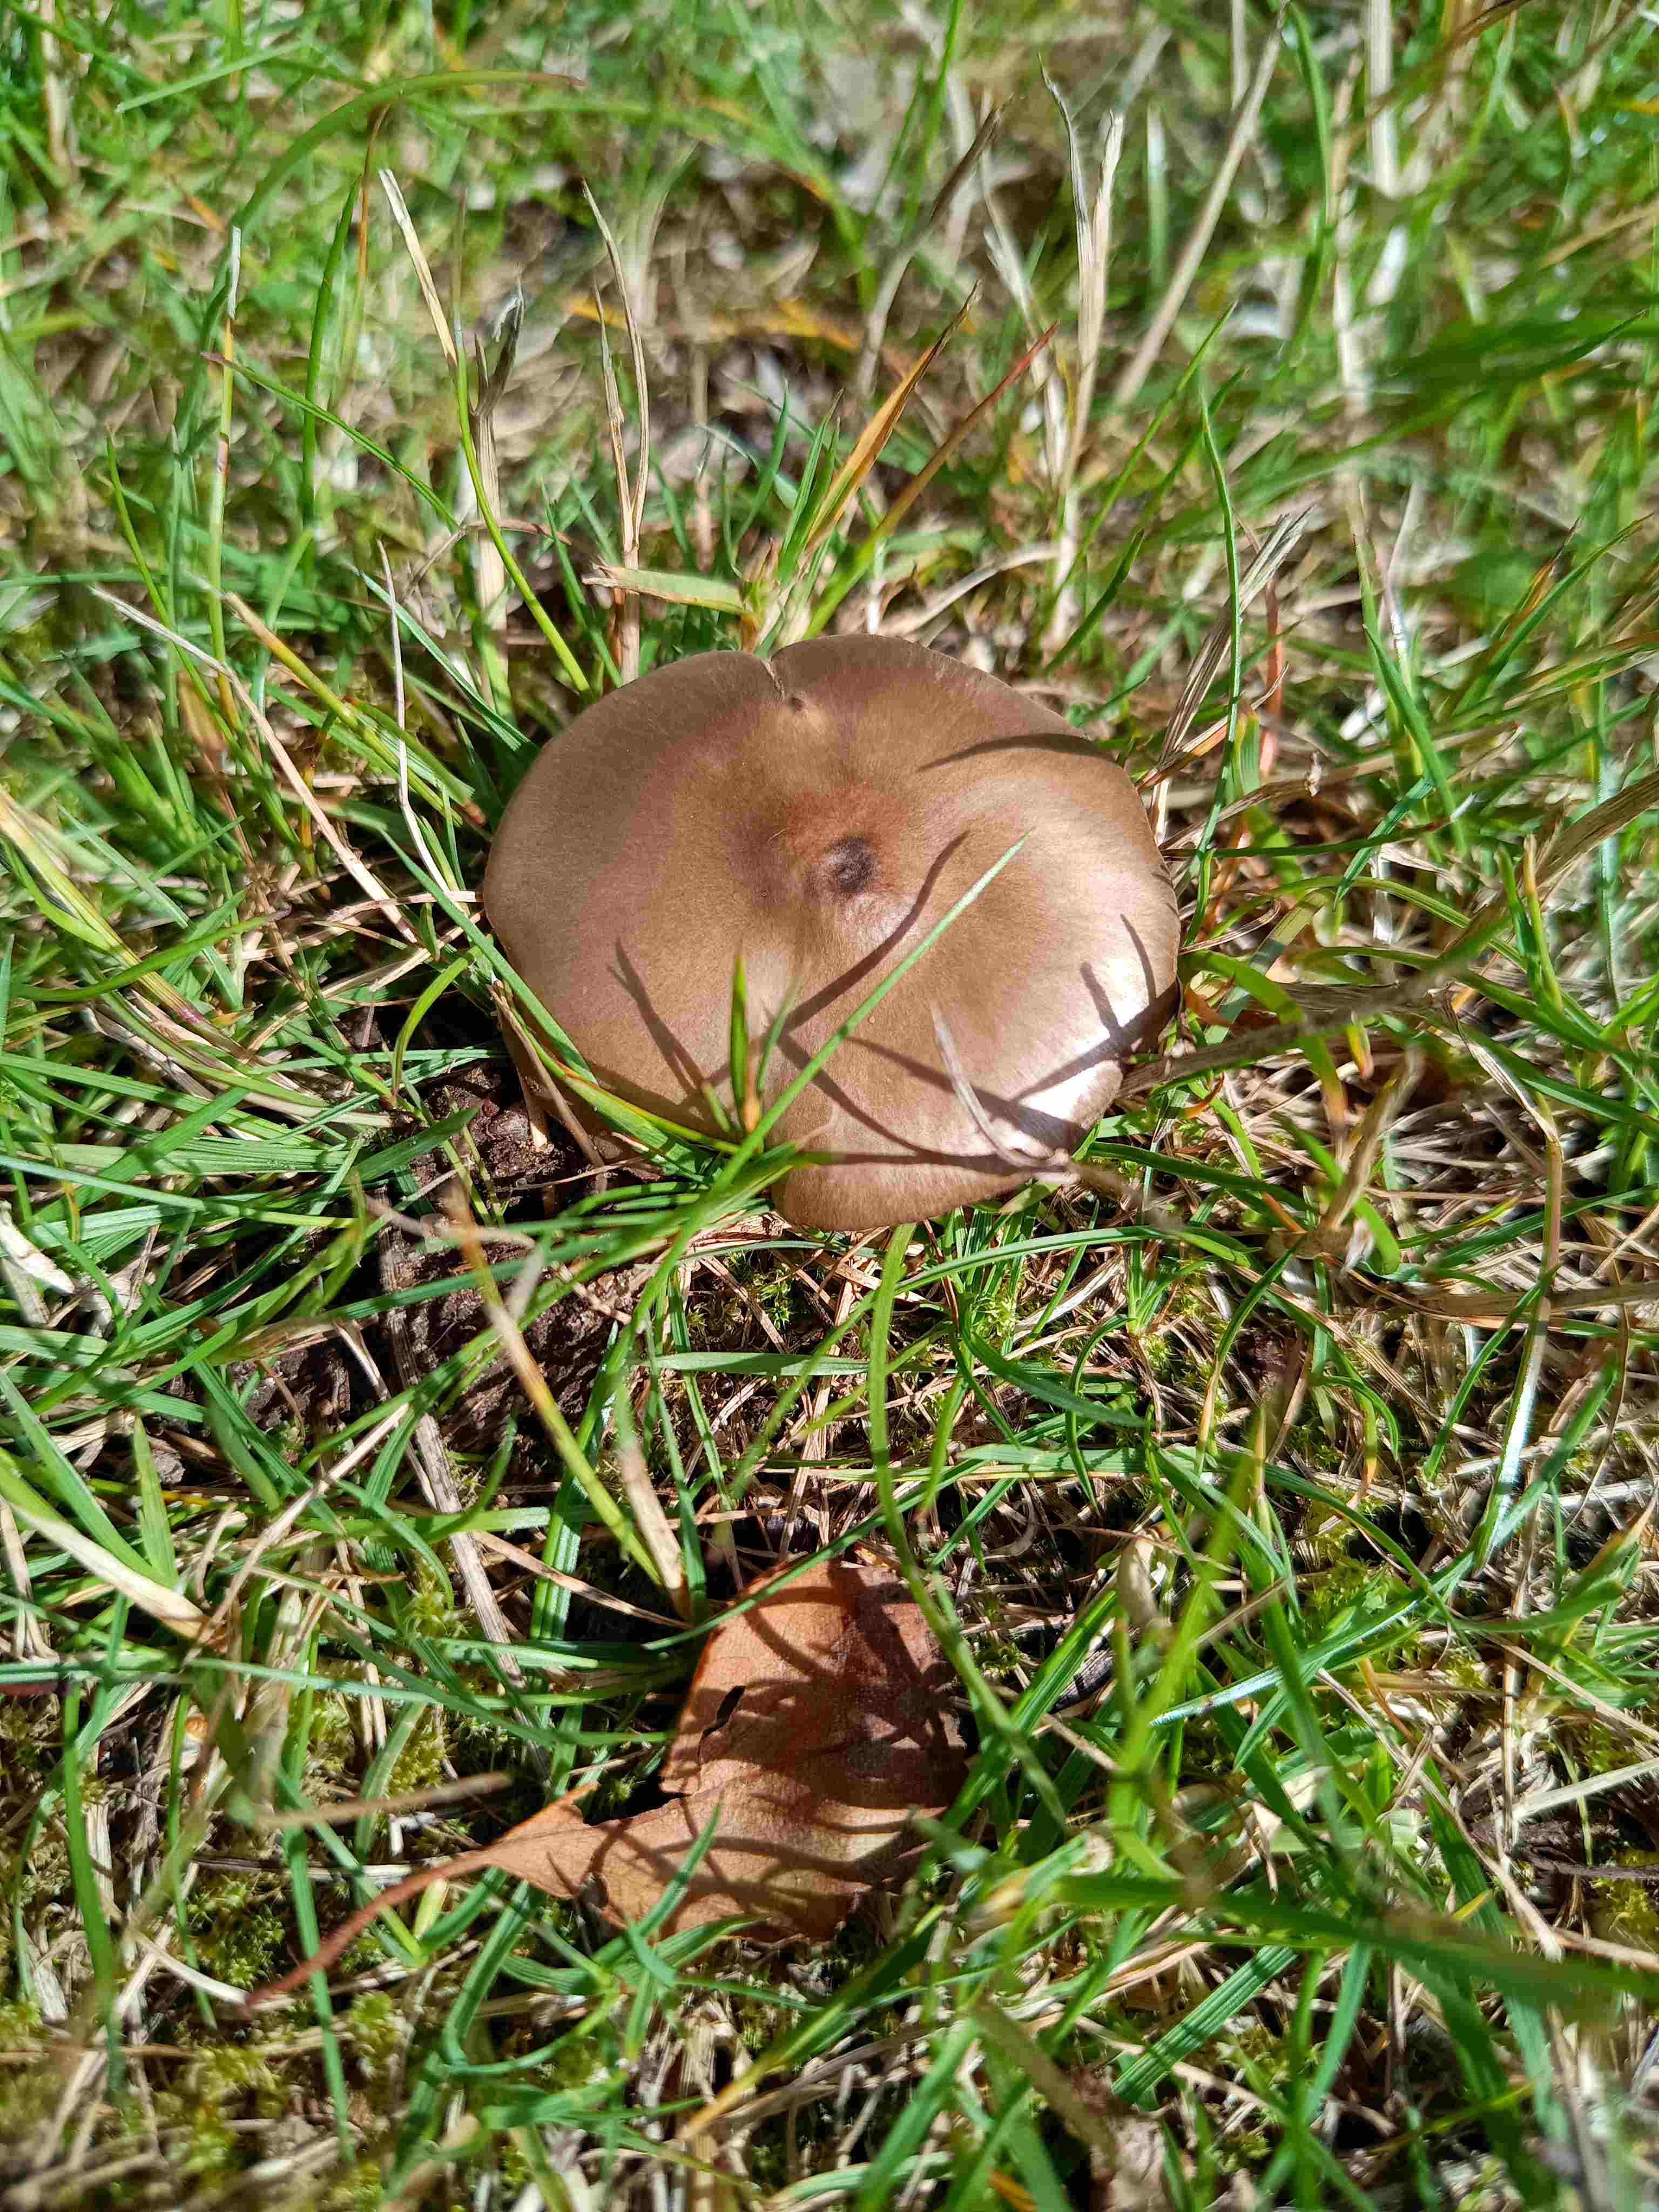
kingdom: Fungi
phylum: Basidiomycota
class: Agaricomycetes
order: Agaricales
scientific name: Agaricales
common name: champignonordenen
